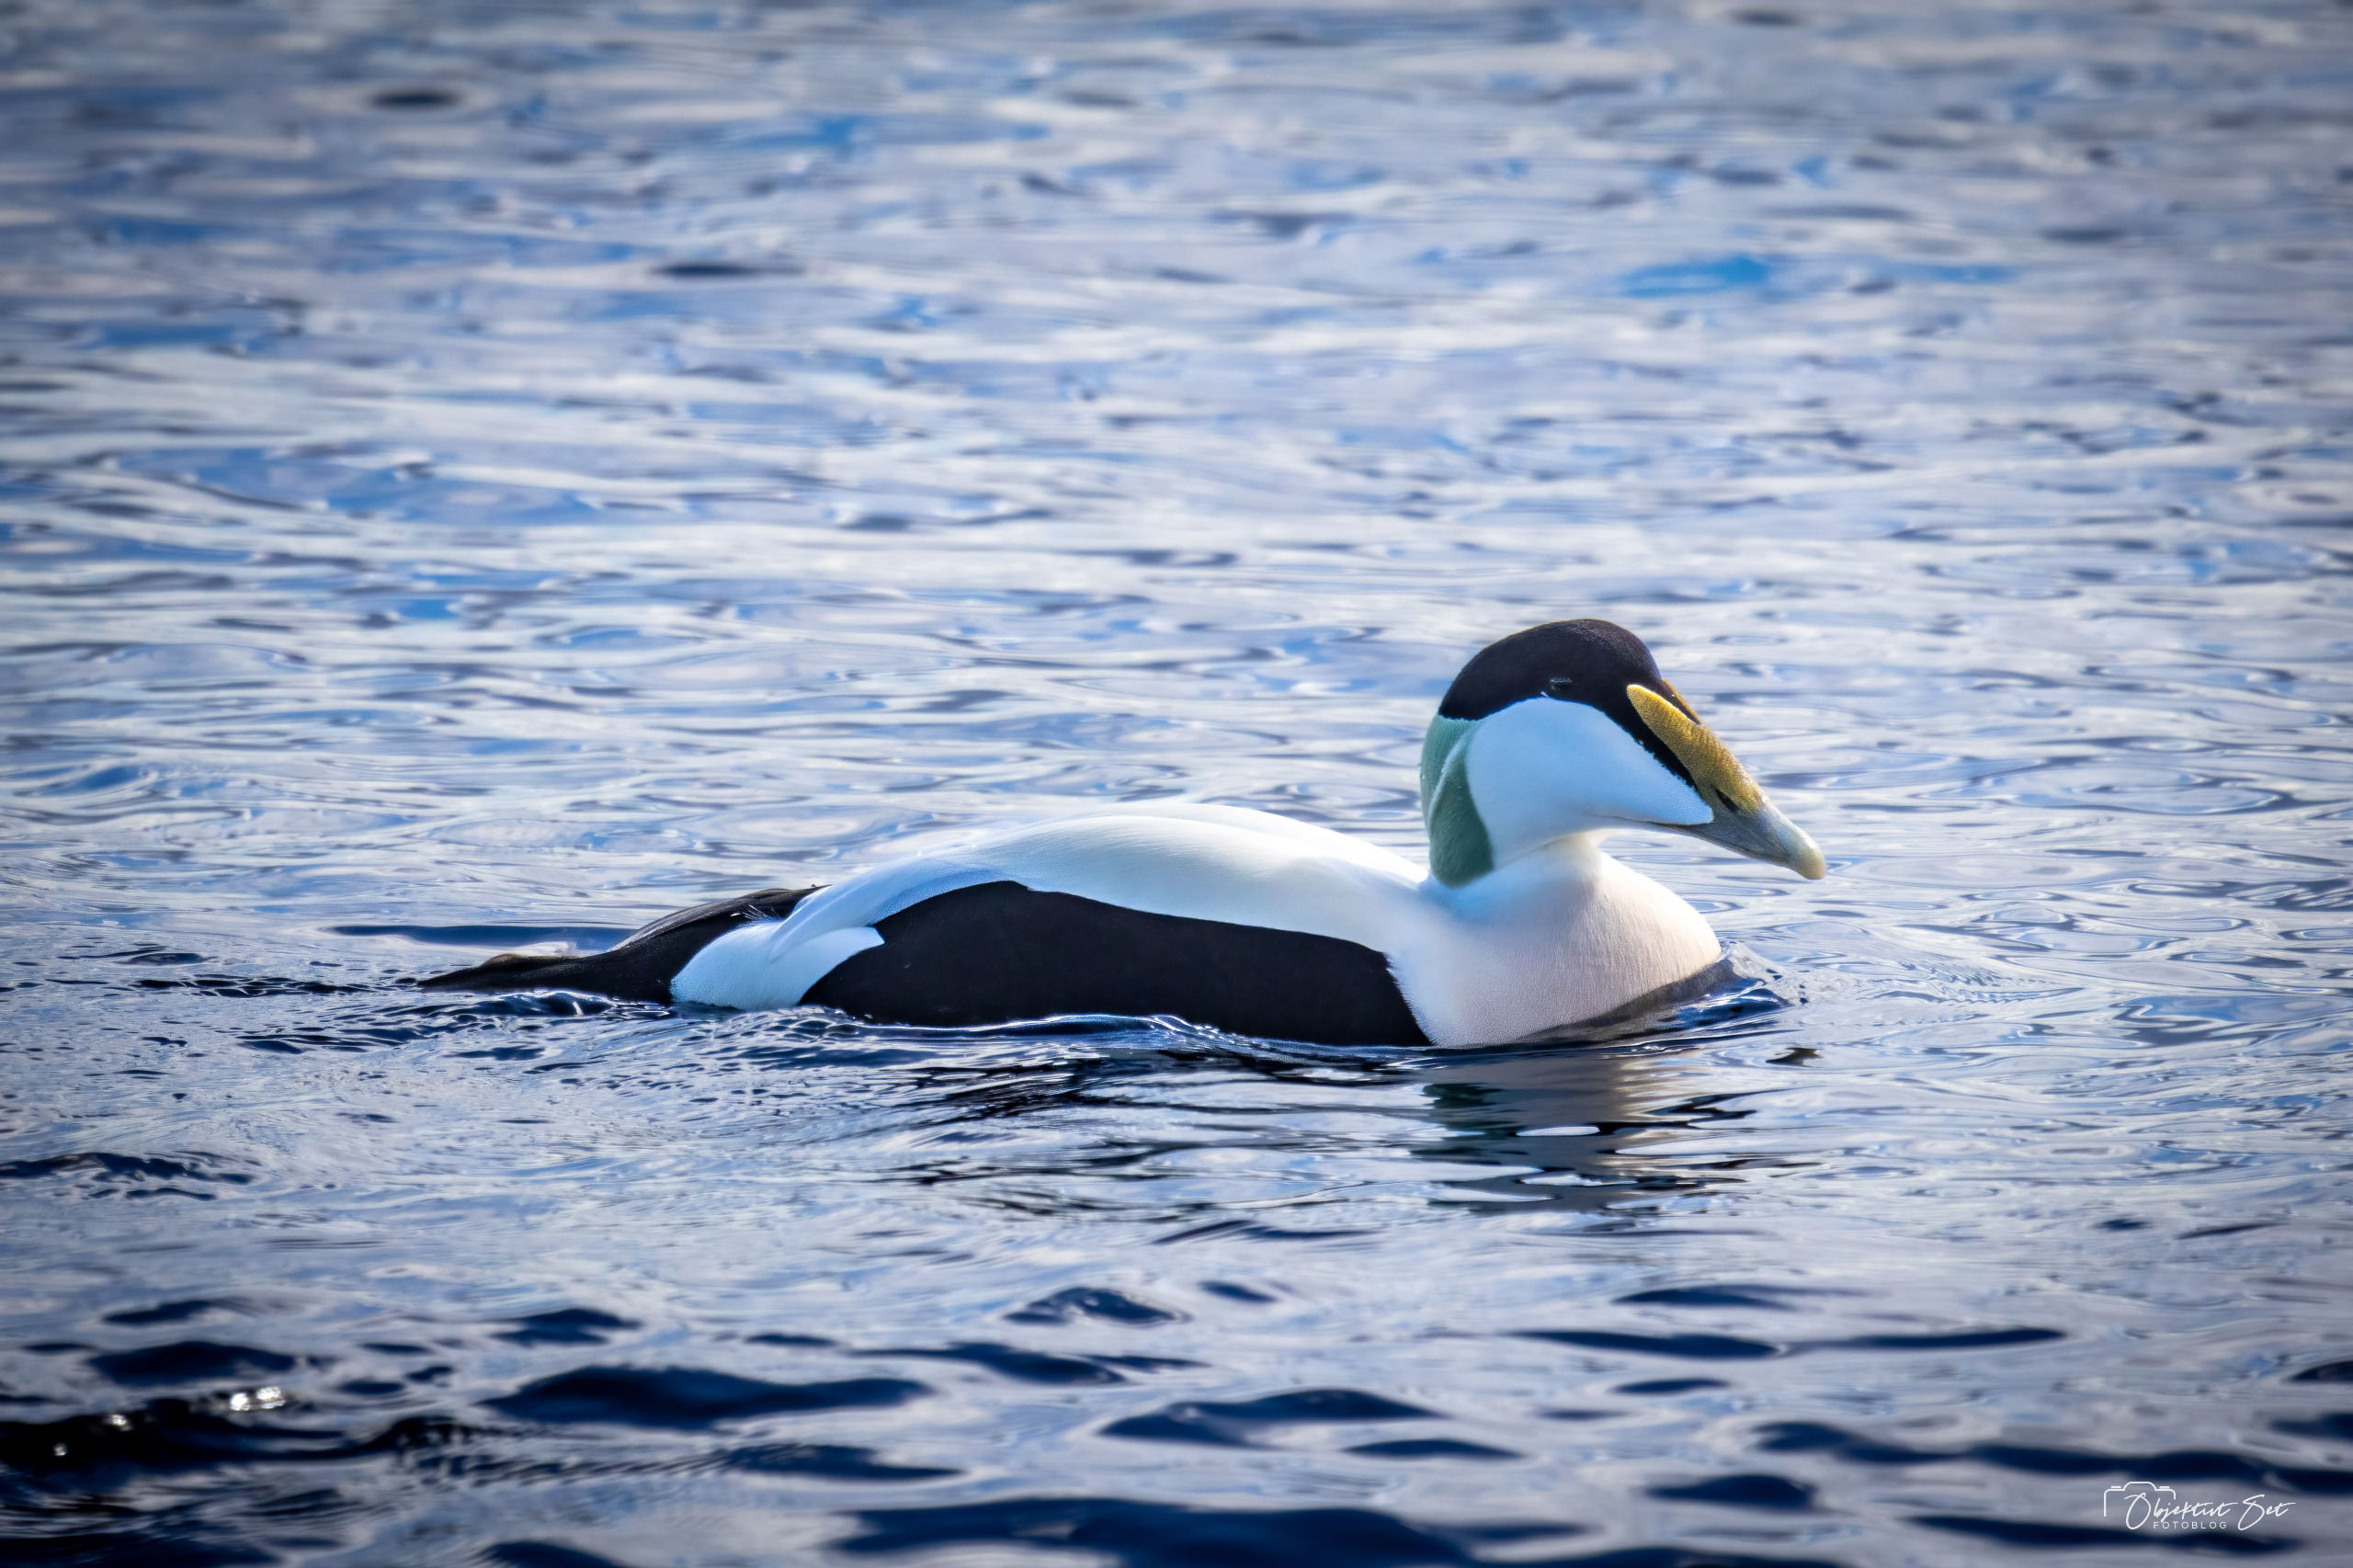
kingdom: Animalia
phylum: Chordata
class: Aves
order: Anseriformes
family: Anatidae
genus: Somateria
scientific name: Somateria mollissima
